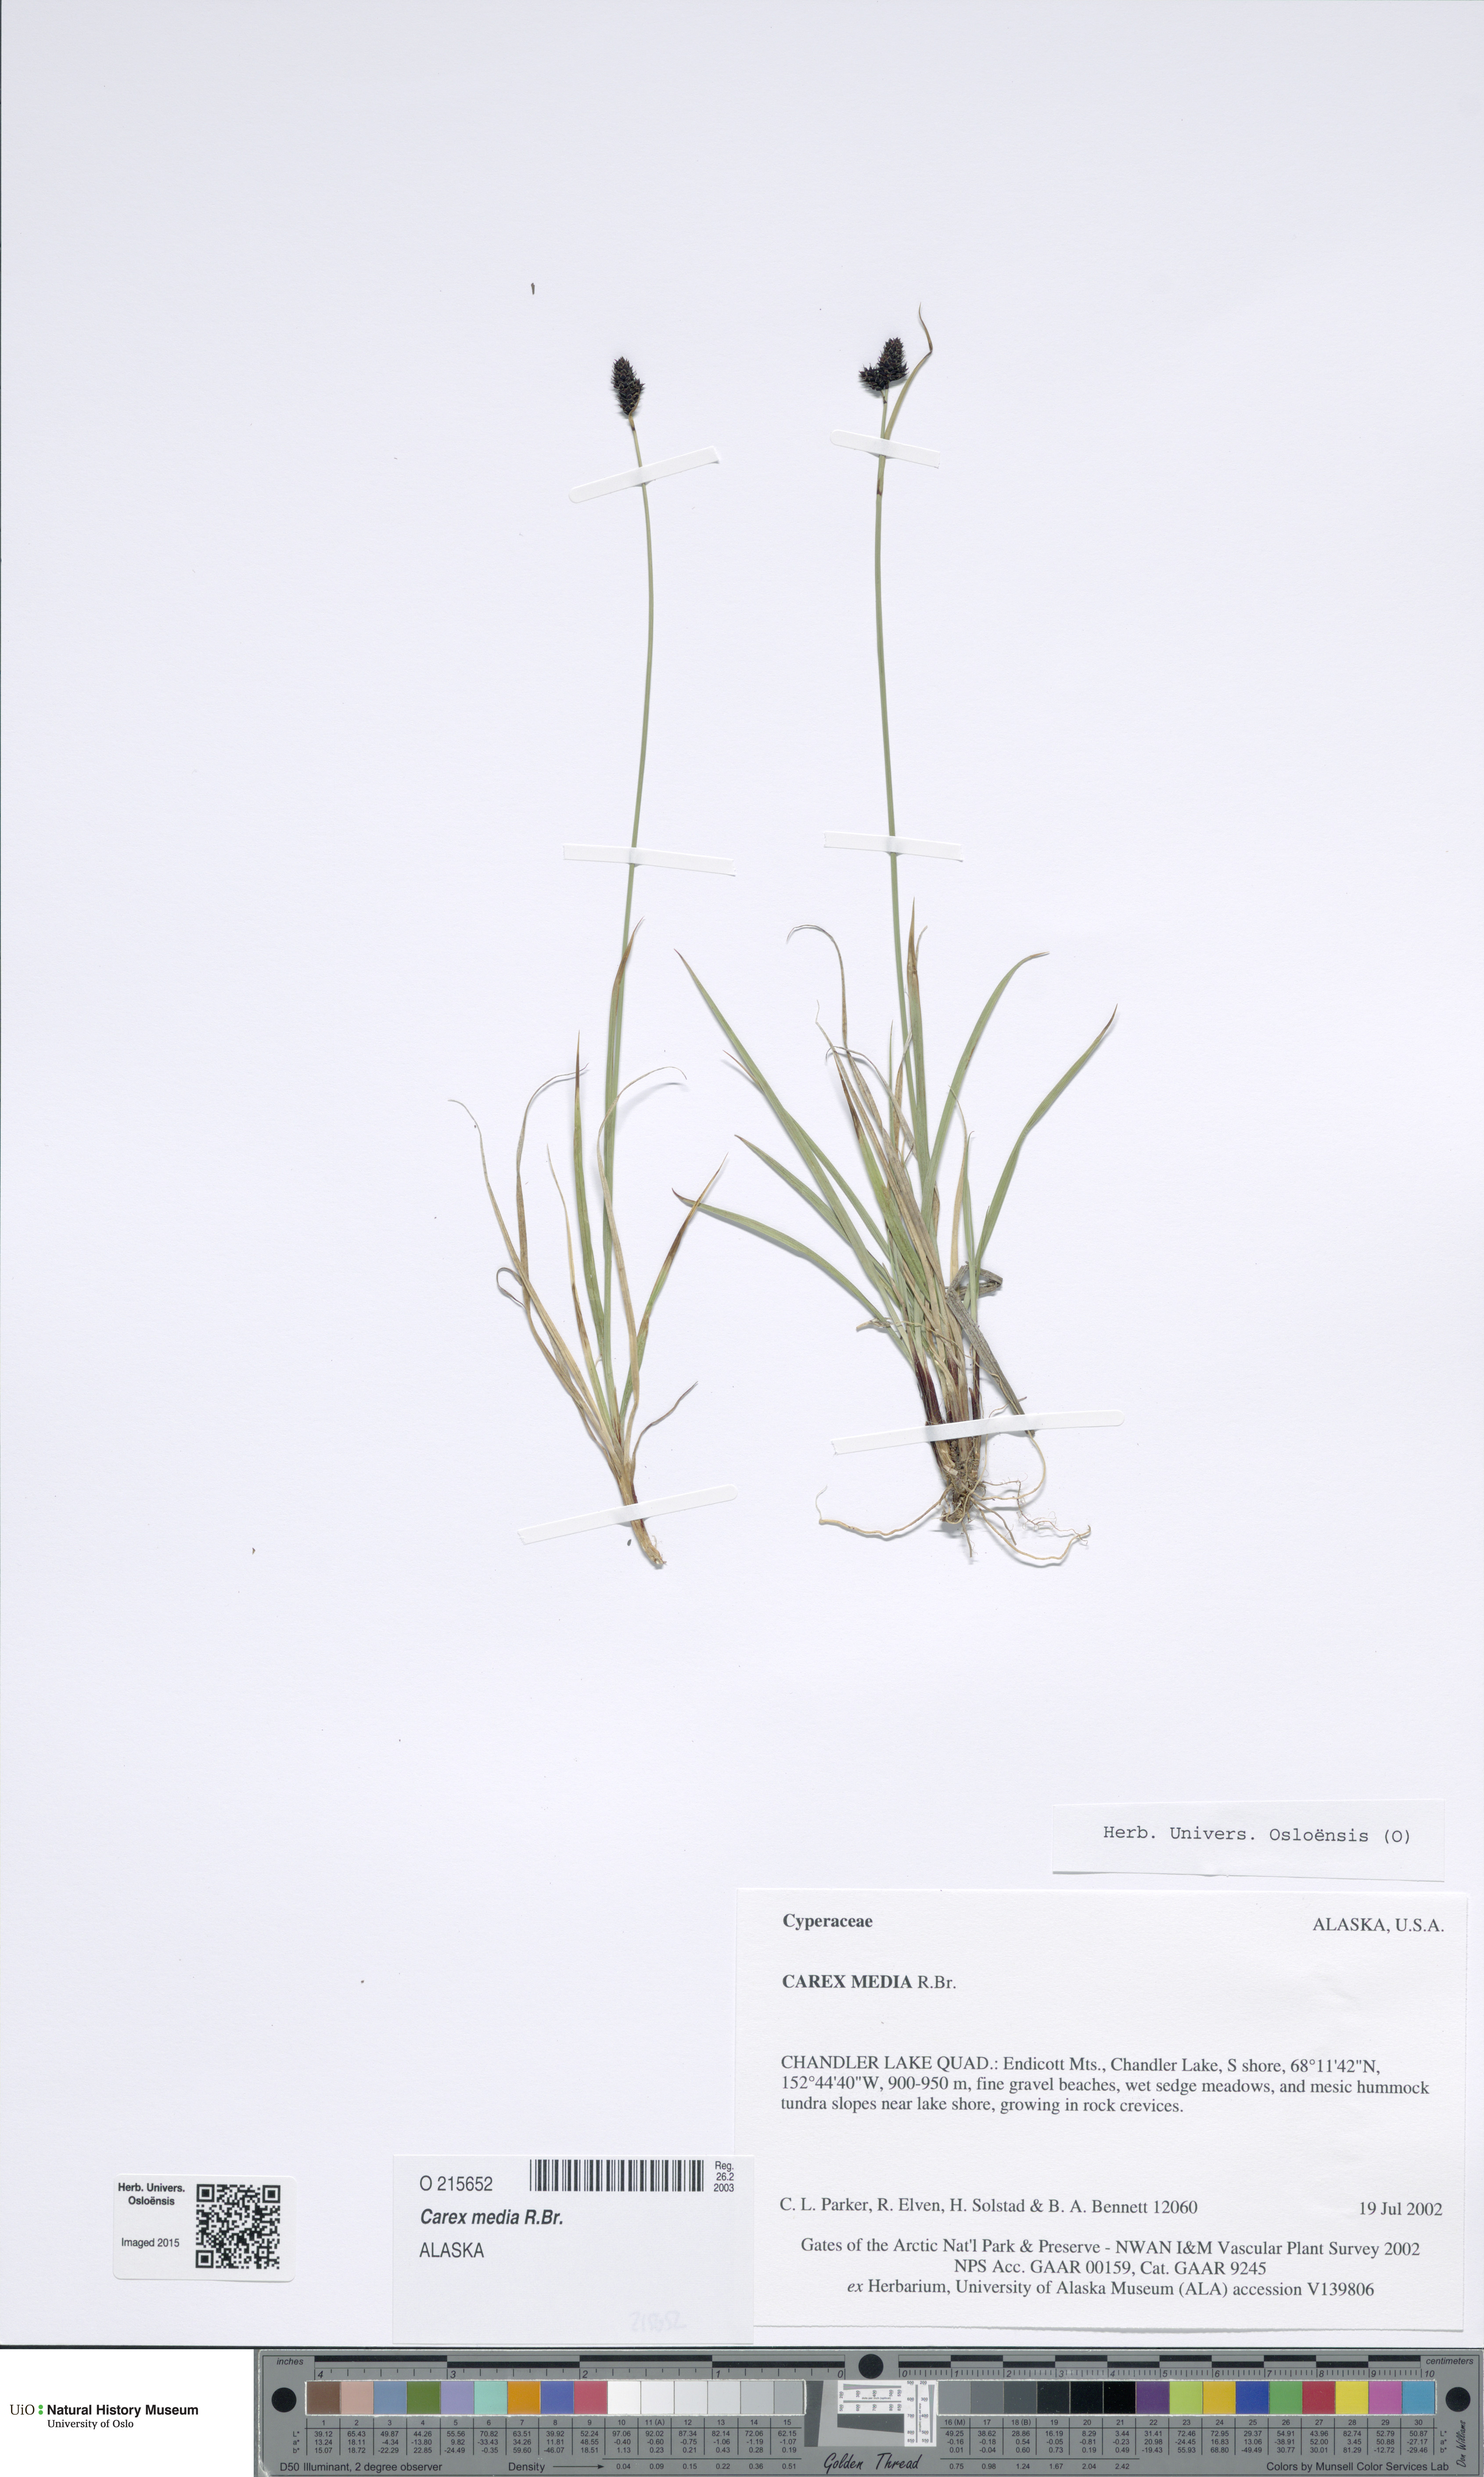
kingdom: Plantae
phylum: Tracheophyta
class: Liliopsida
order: Poales
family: Cyperaceae
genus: Carex
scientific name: Carex media
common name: Alpine sedge
